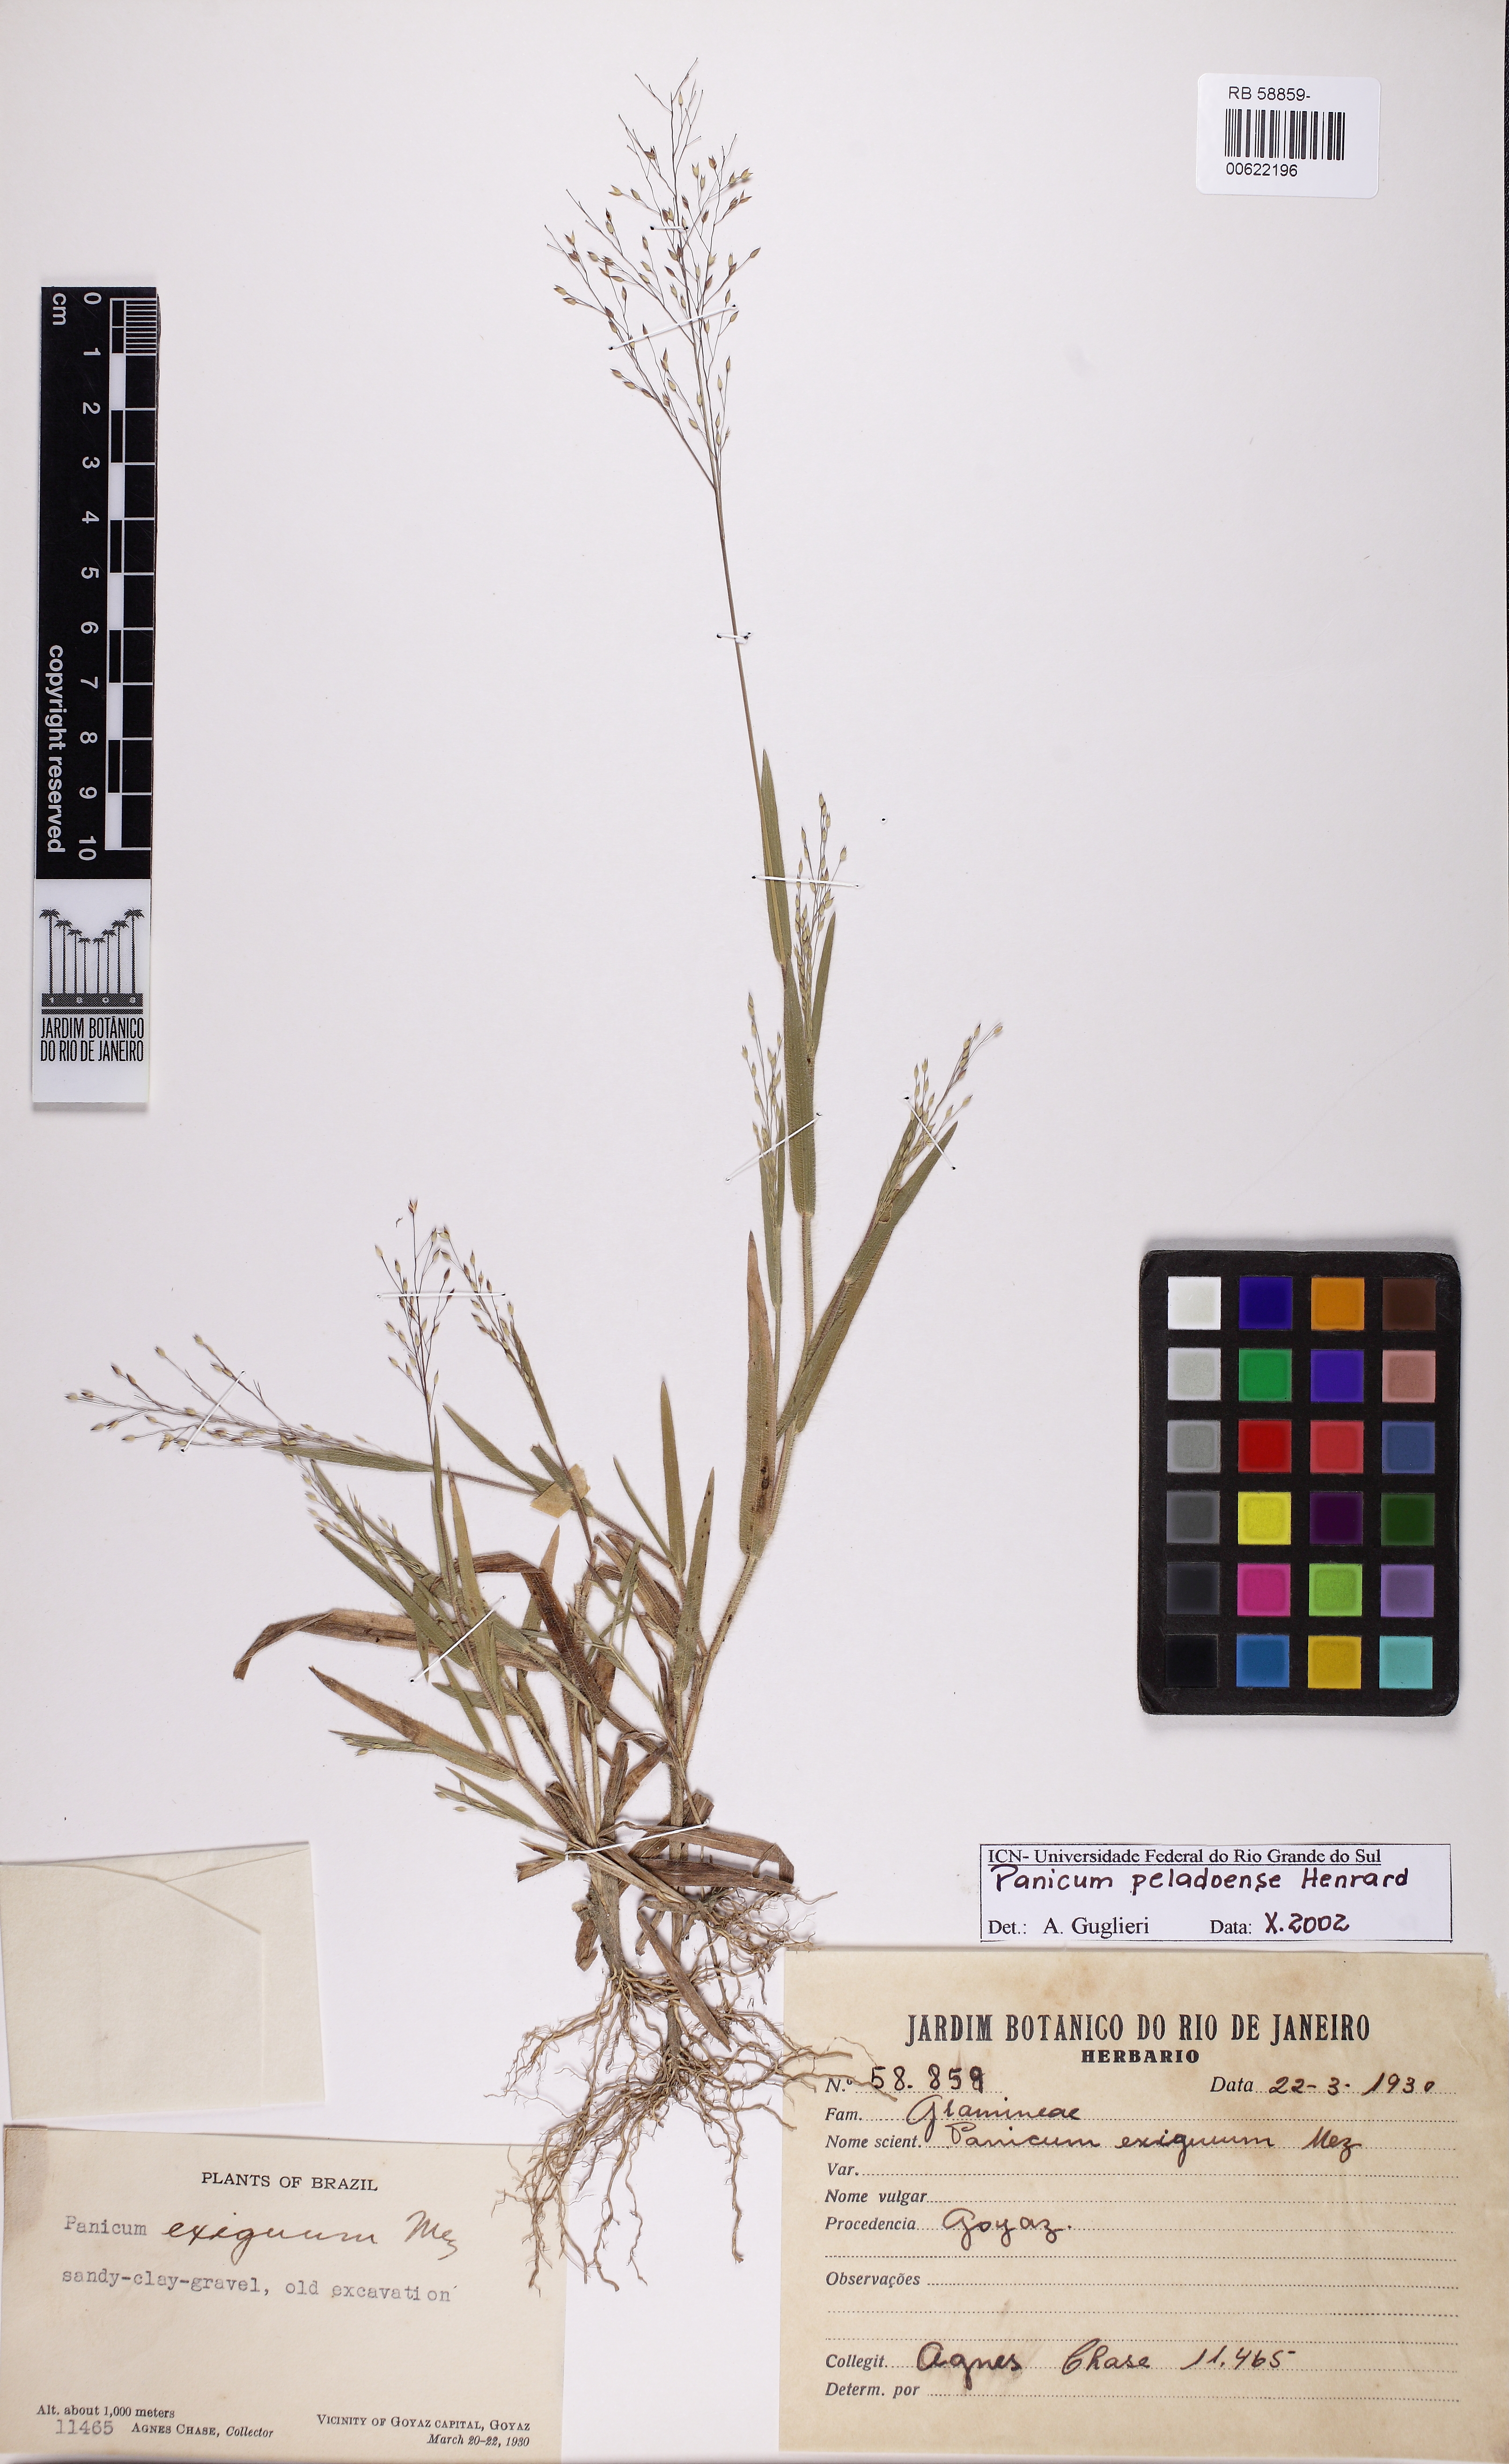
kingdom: Plantae
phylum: Tracheophyta
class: Liliopsida
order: Poales
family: Poaceae
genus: Panicum
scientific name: Panicum peladoense
